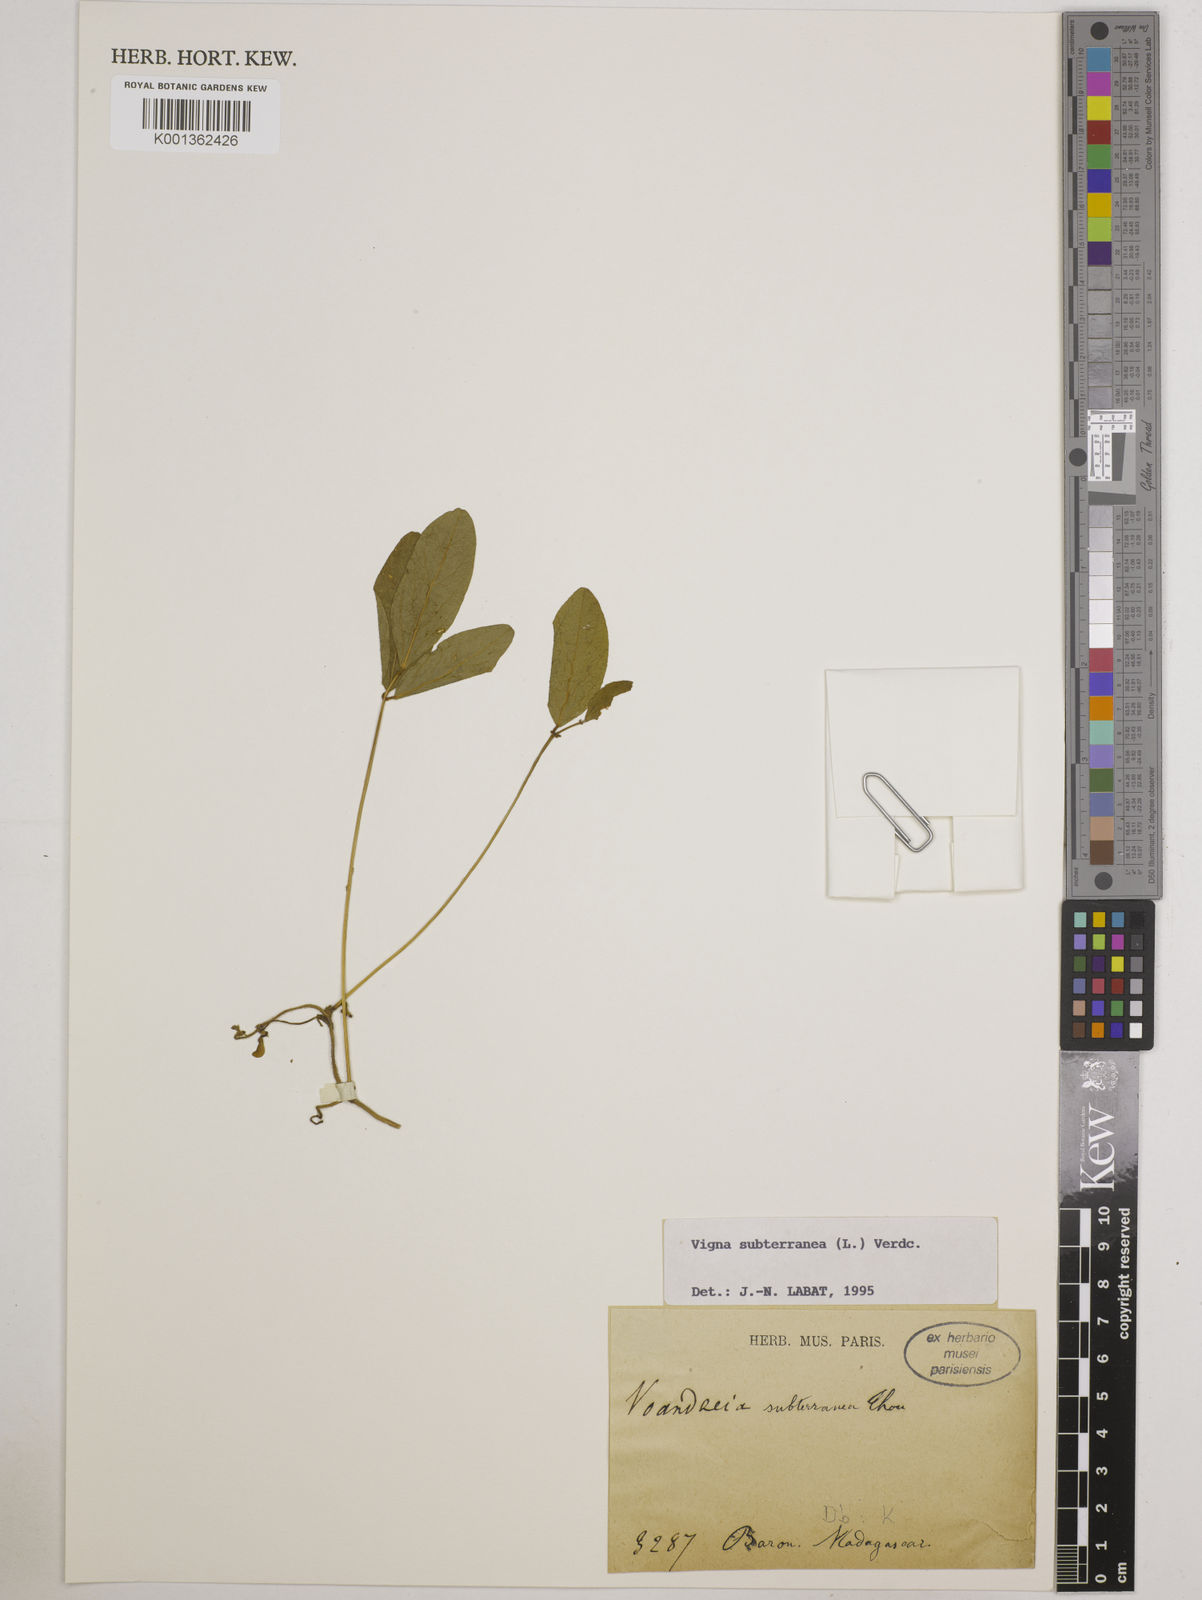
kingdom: Plantae
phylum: Tracheophyta
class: Magnoliopsida
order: Fabales
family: Fabaceae
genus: Vigna
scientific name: Vigna subterranea
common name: Bambara groundnut
